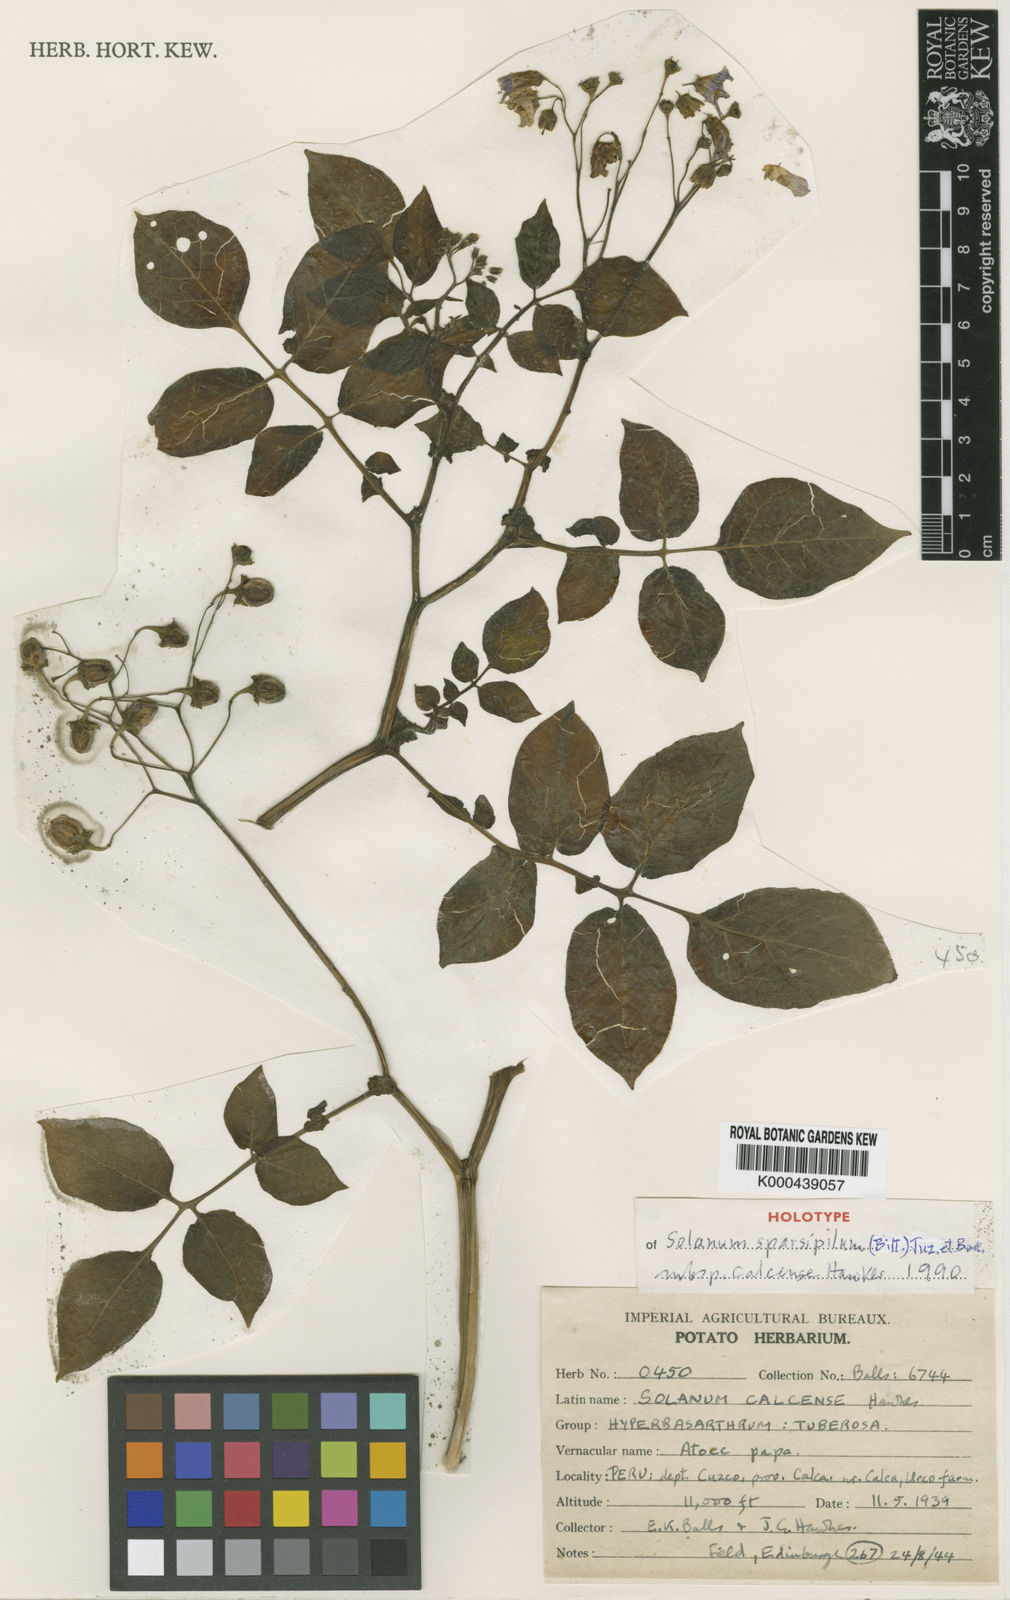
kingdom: Plantae
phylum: Tracheophyta
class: Magnoliopsida
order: Solanales
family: Solanaceae
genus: Solanum
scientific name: Solanum brevicaule
